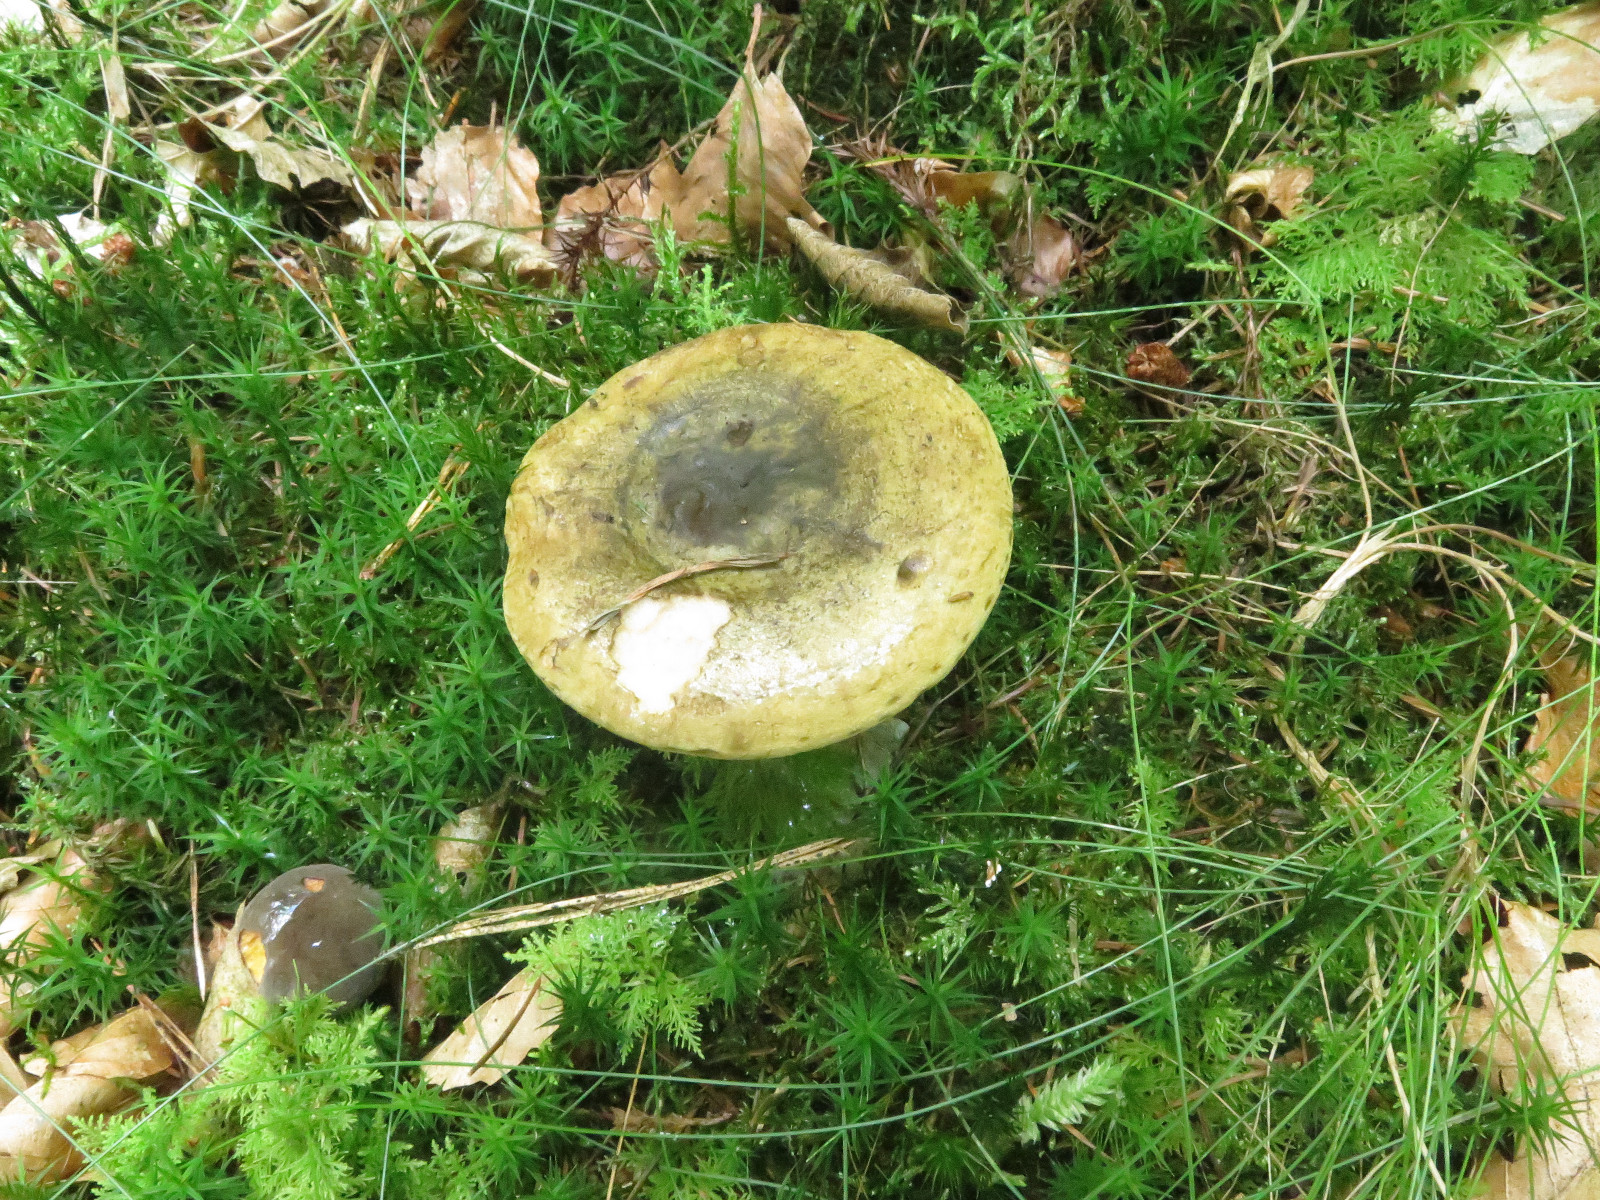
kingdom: Fungi
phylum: Basidiomycota
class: Agaricomycetes
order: Russulales
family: Russulaceae
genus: Lactarius
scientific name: Lactarius necator
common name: manddraber-mælkehat
